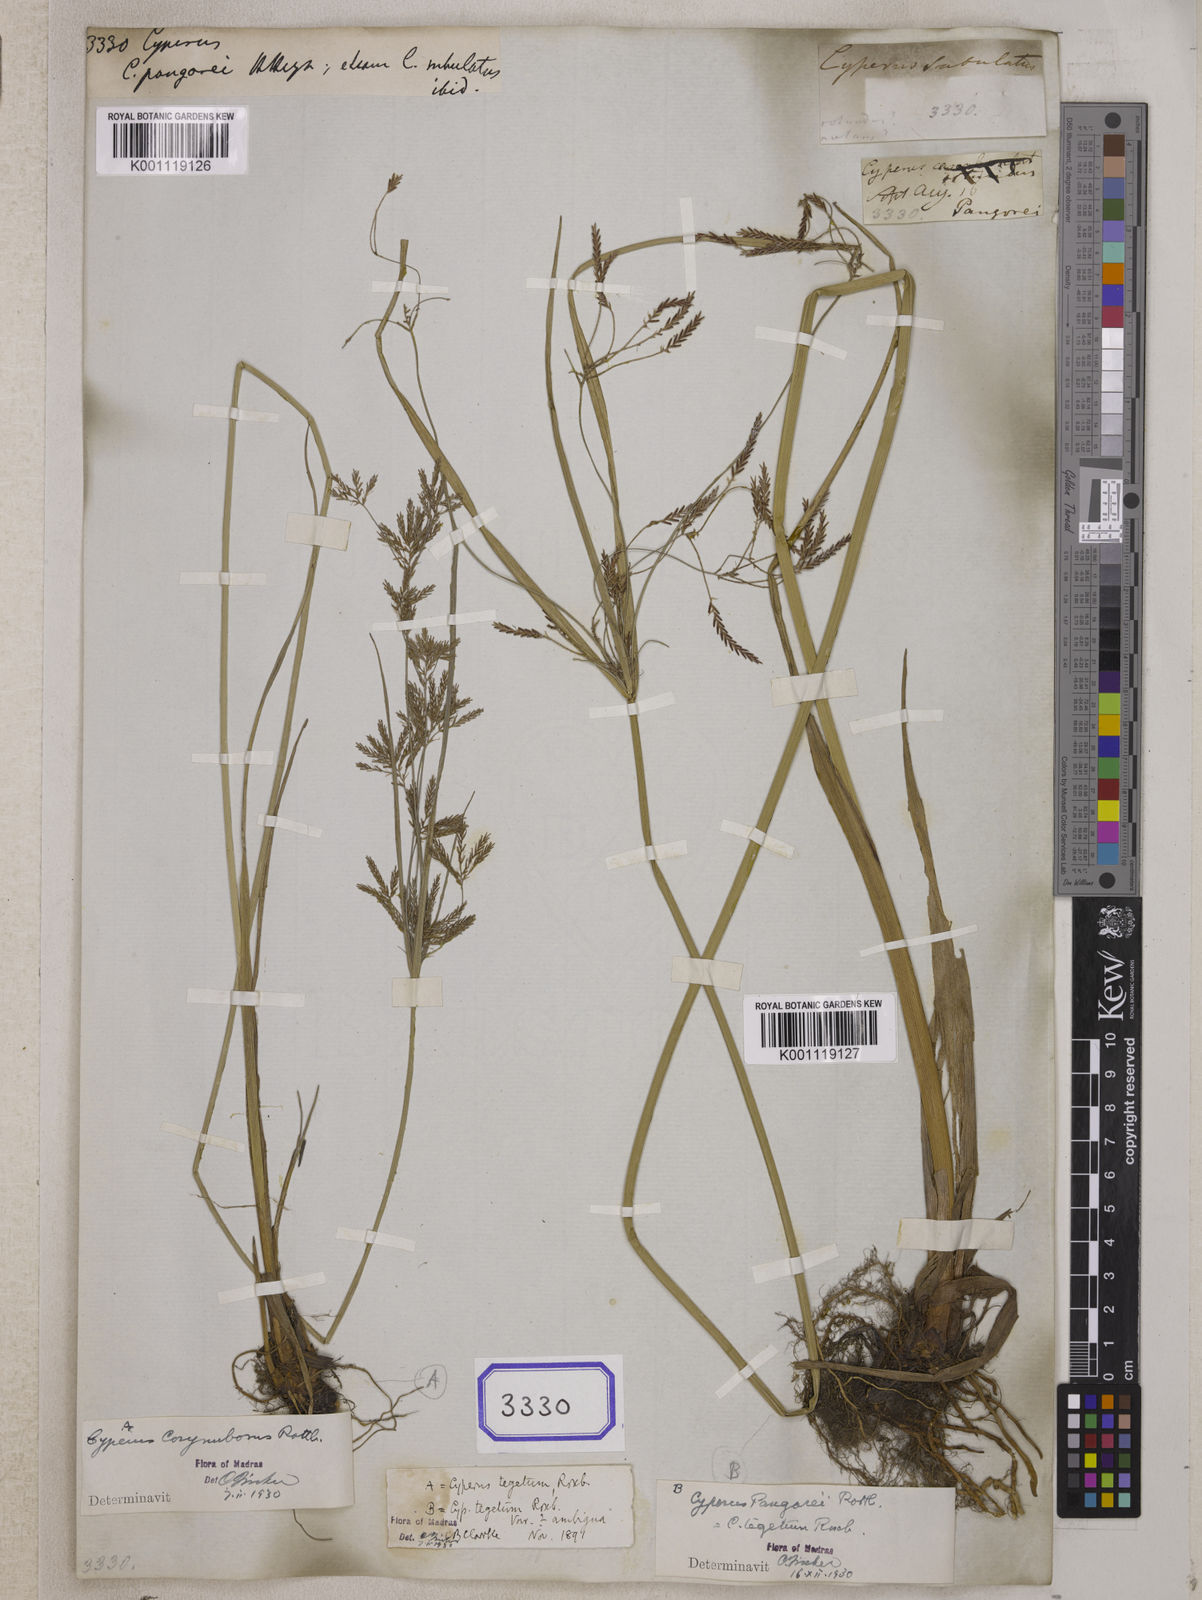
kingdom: Plantae
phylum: Tracheophyta
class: Liliopsida
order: Poales
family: Cyperaceae
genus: Cyperus
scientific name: Cyperus
